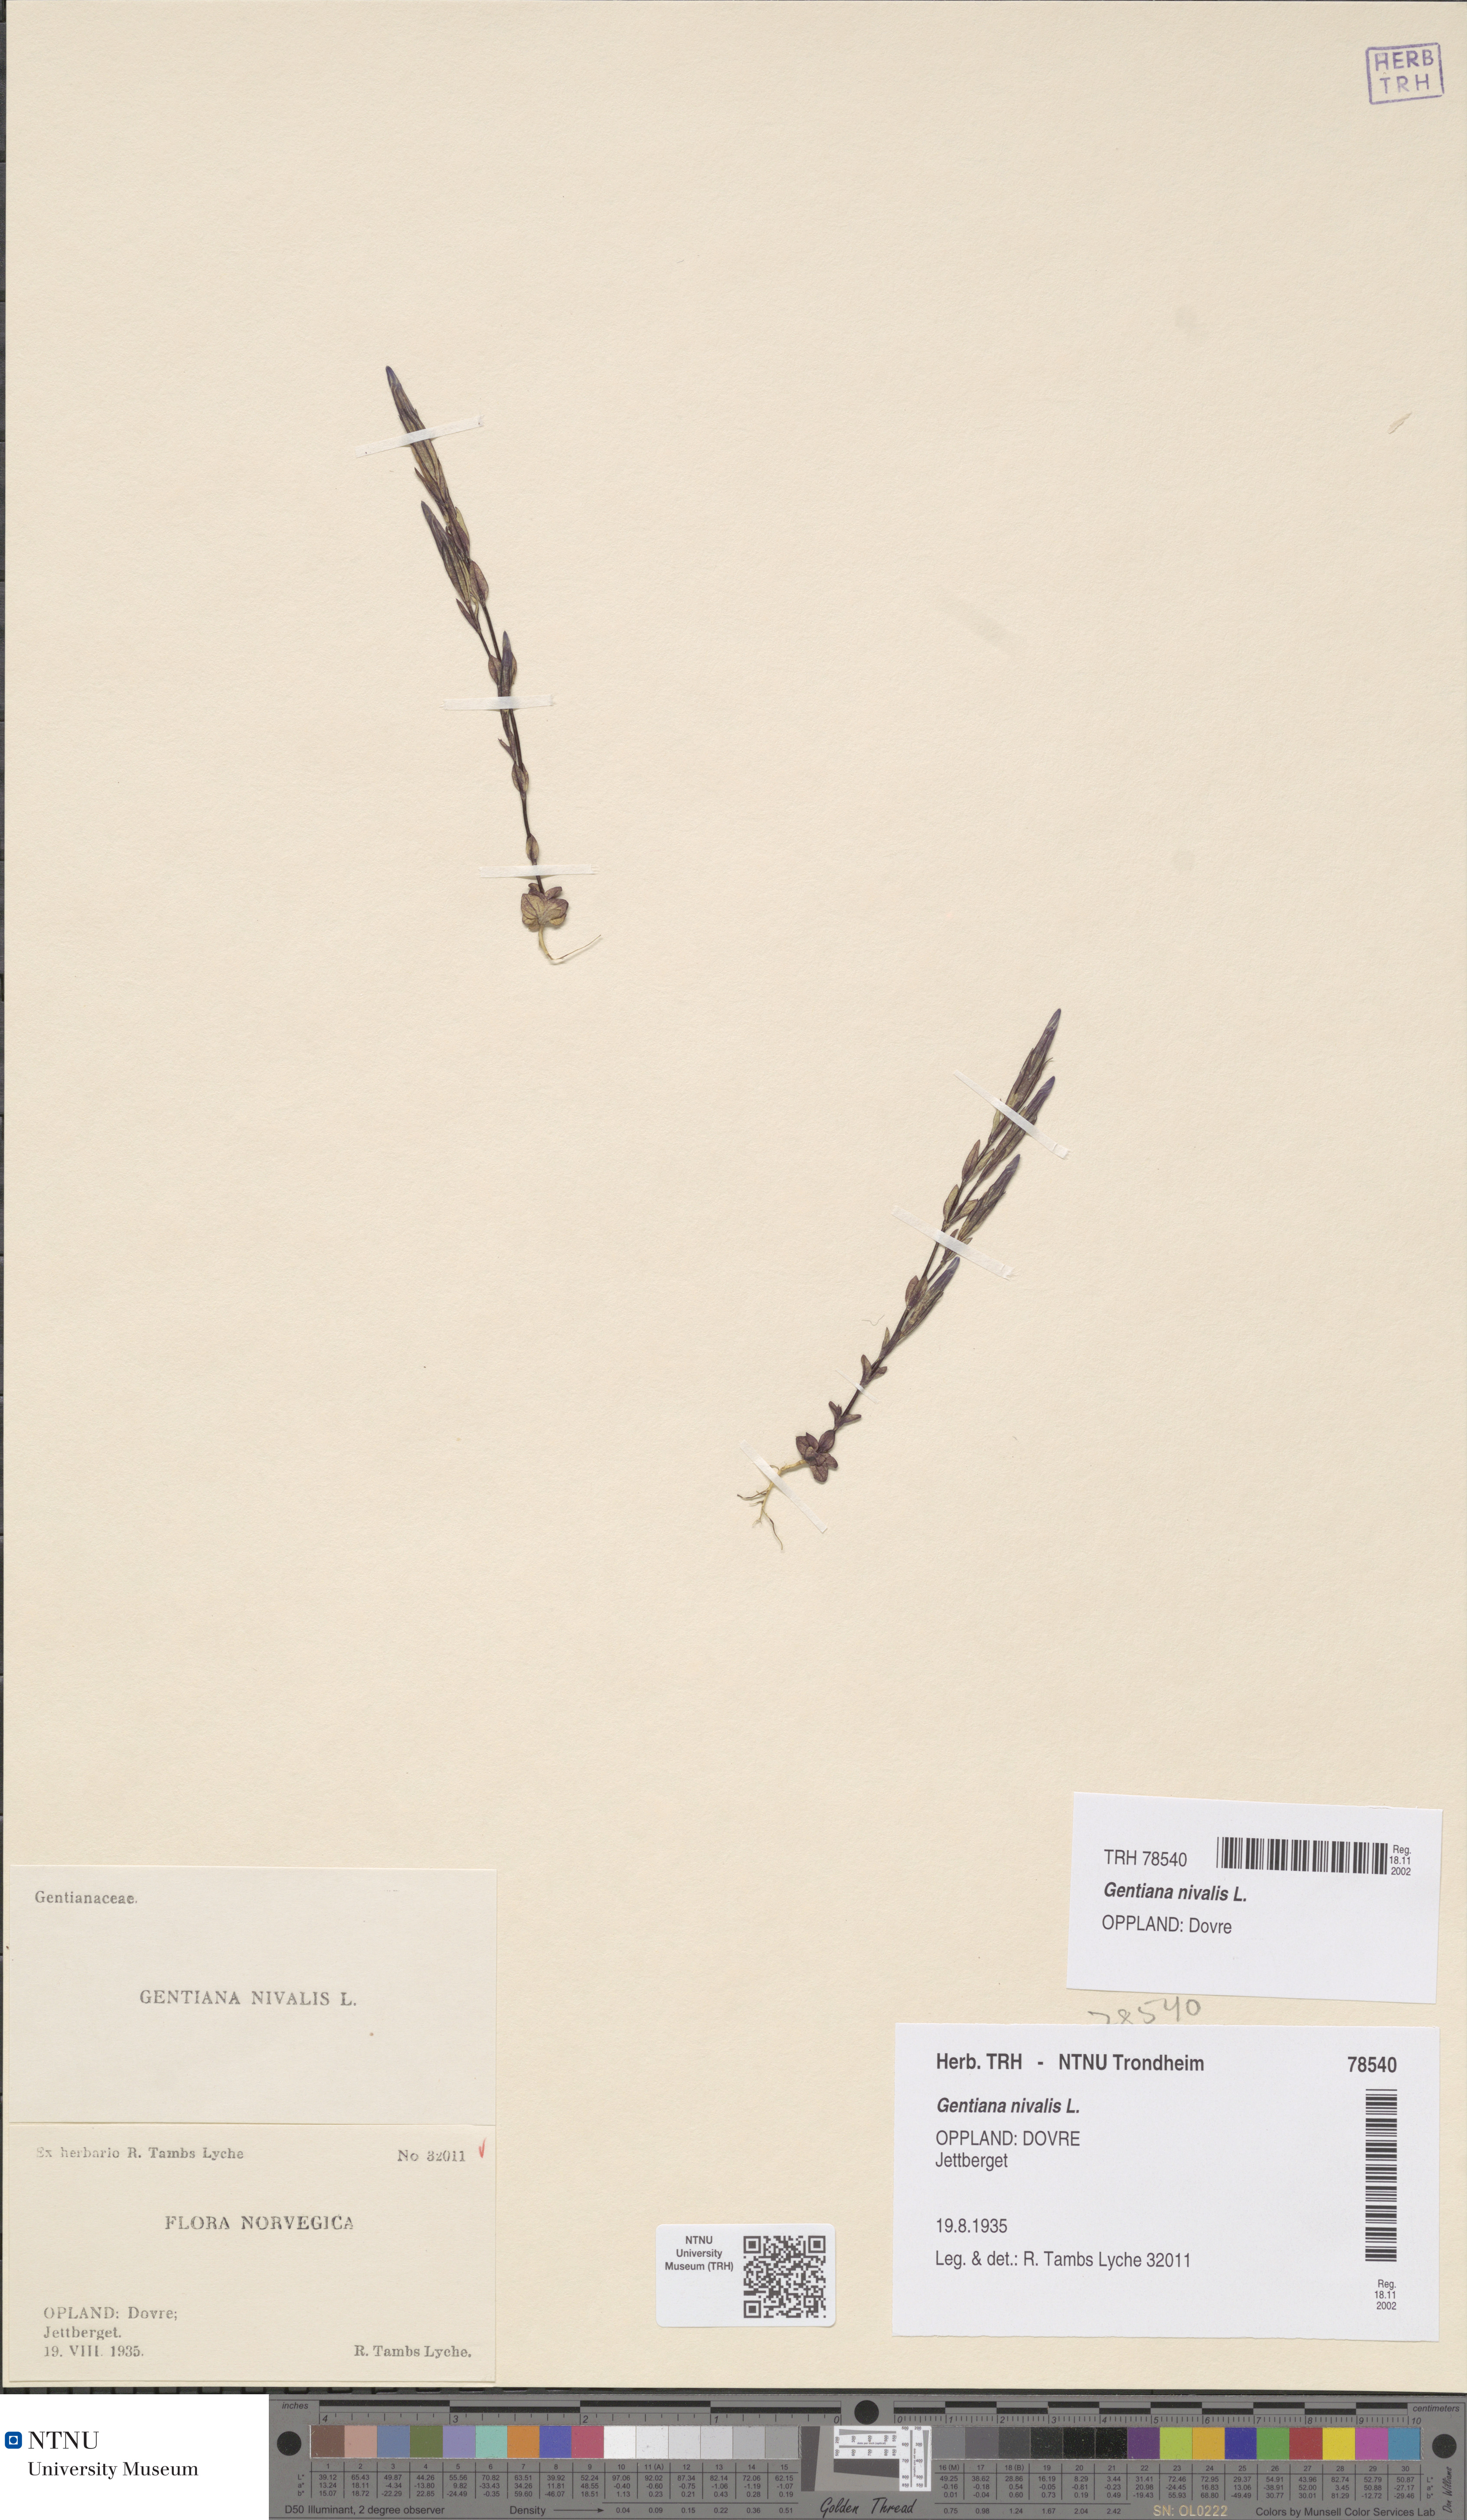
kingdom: Plantae
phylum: Tracheophyta
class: Magnoliopsida
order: Gentianales
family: Gentianaceae
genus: Gentiana
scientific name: Gentiana nivalis
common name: Alpine gentian
